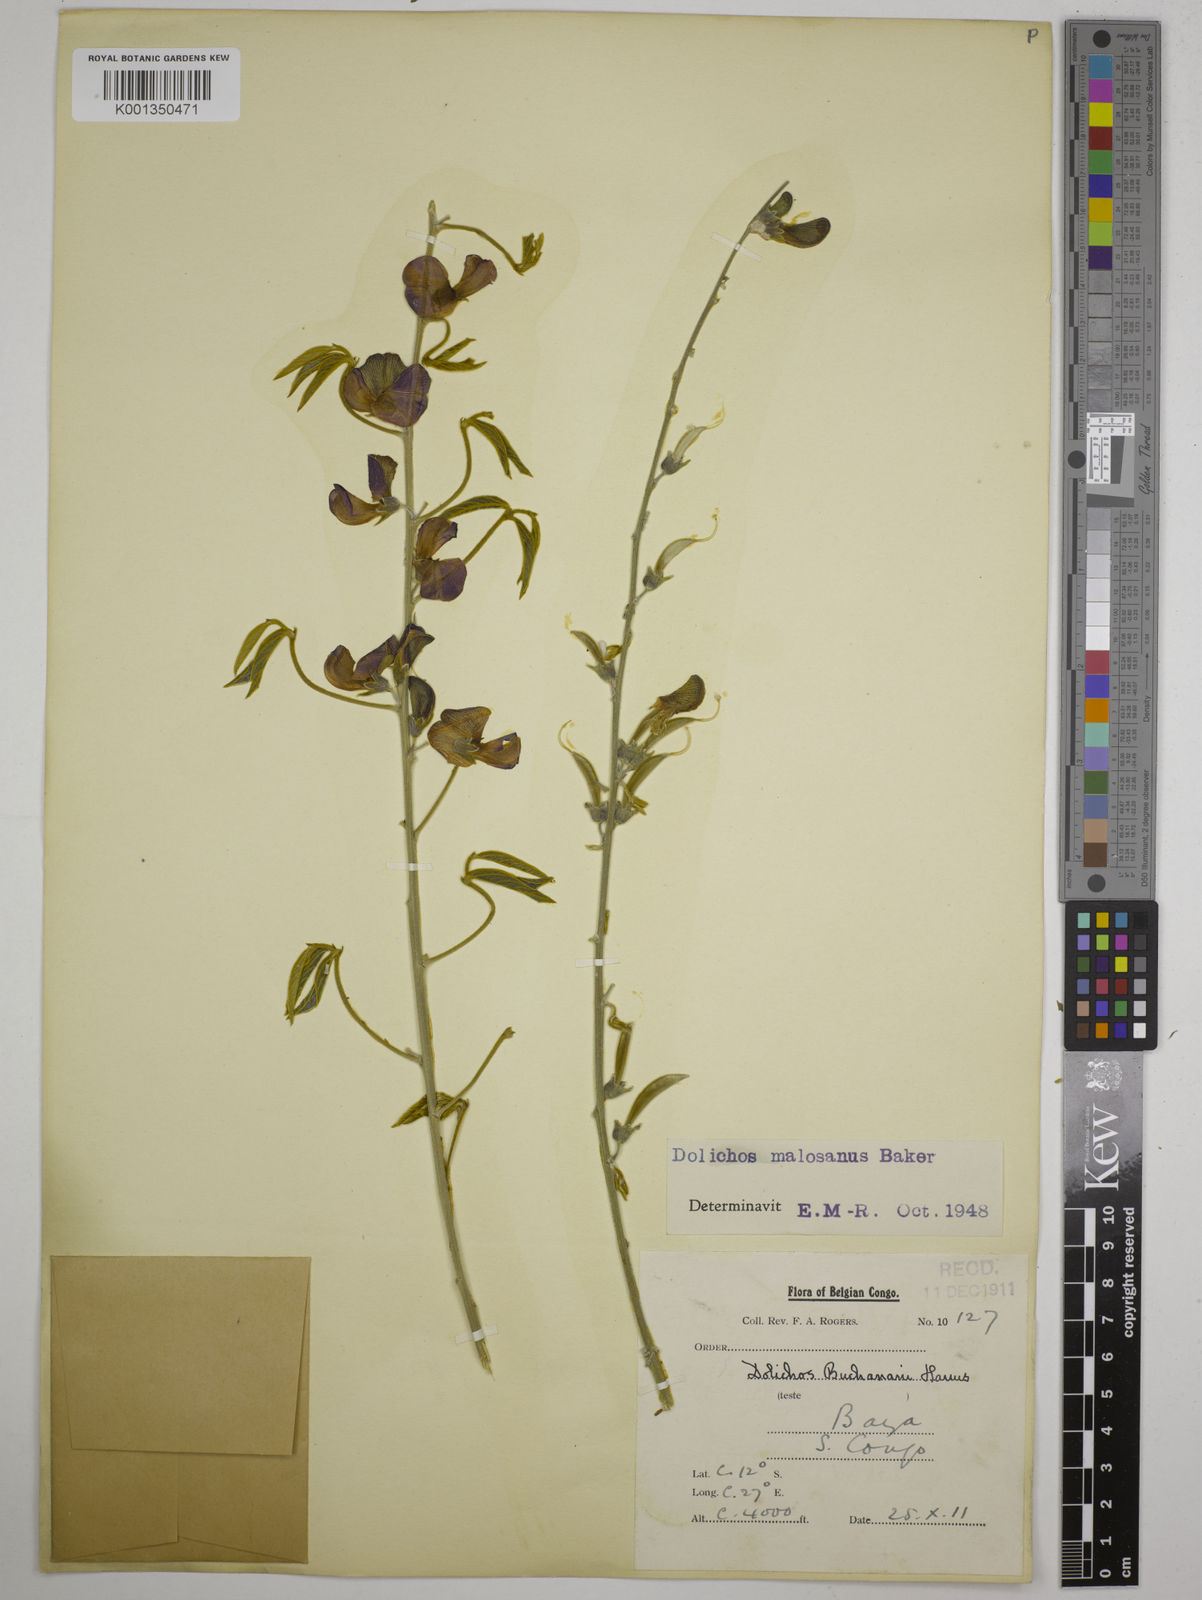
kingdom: Plantae
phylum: Tracheophyta
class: Magnoliopsida
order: Fabales
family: Fabaceae
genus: Dolichos
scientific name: Dolichos kilimandscharicus
